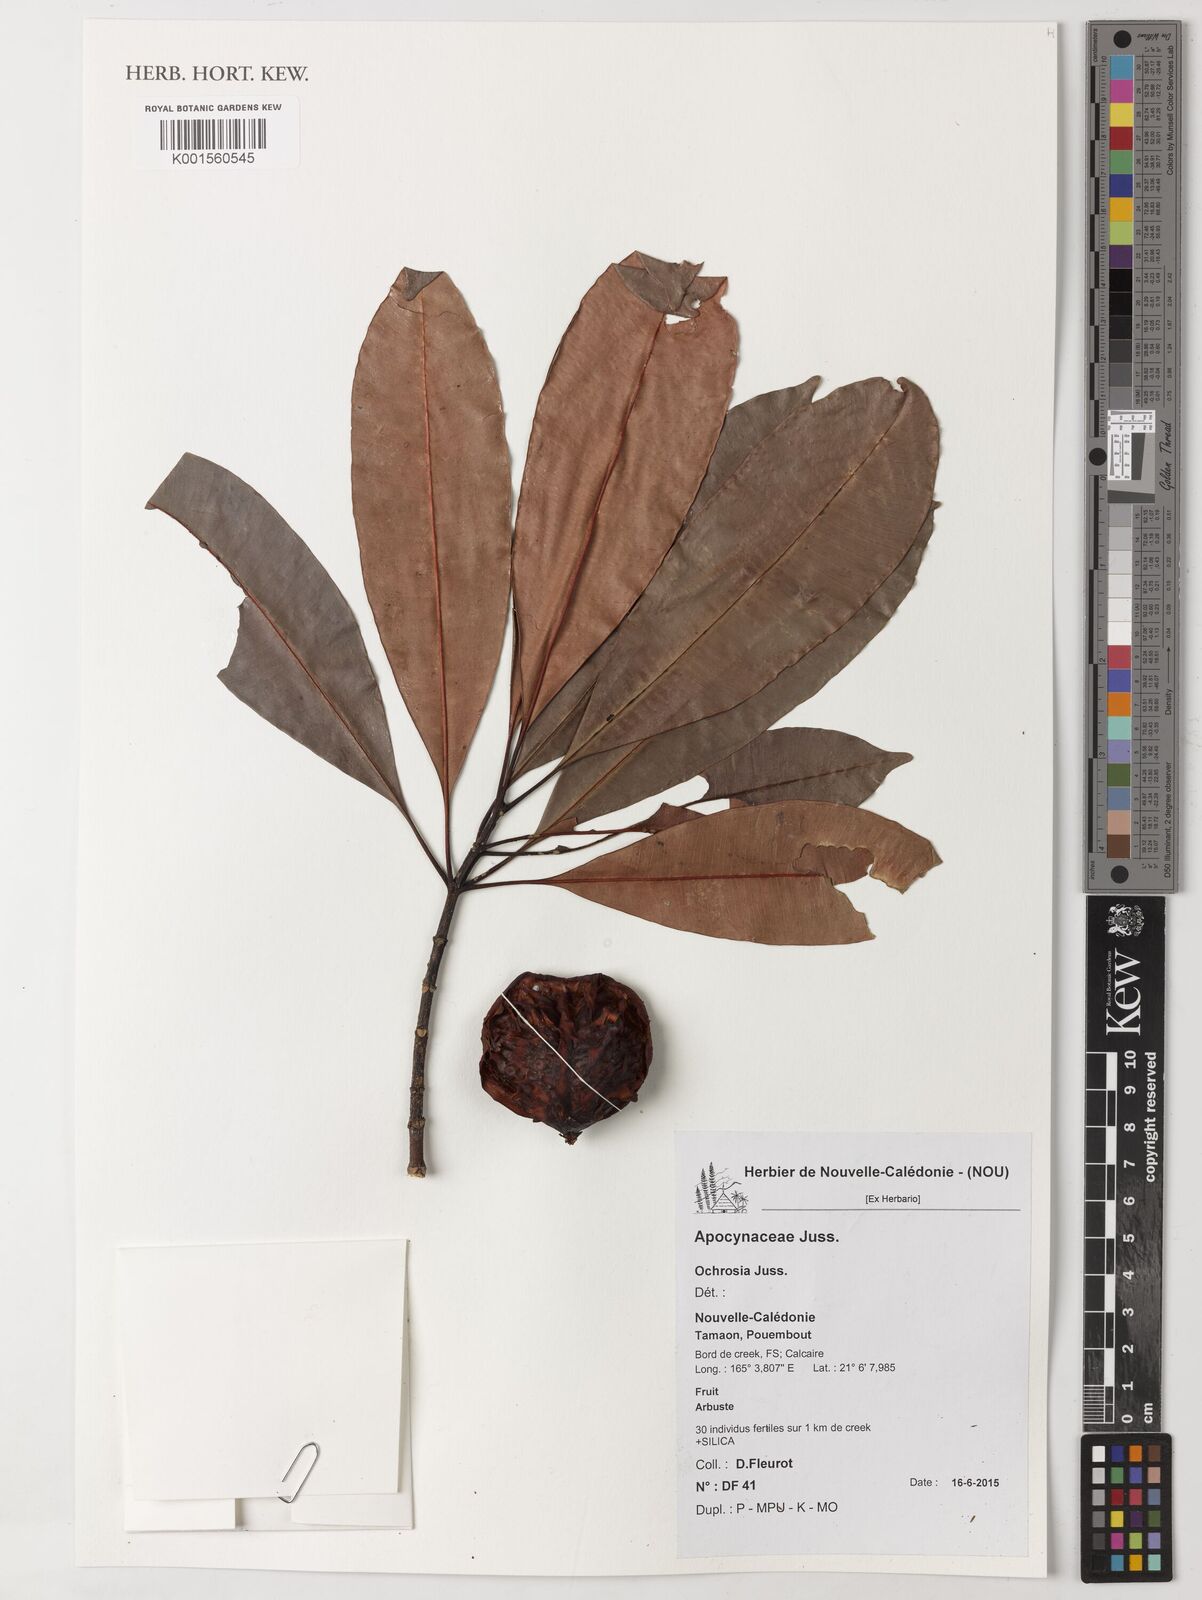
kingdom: Plantae
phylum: Tracheophyta
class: Magnoliopsida
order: Gentianales
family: Apocynaceae
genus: Ochrosia
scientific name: Ochrosia
